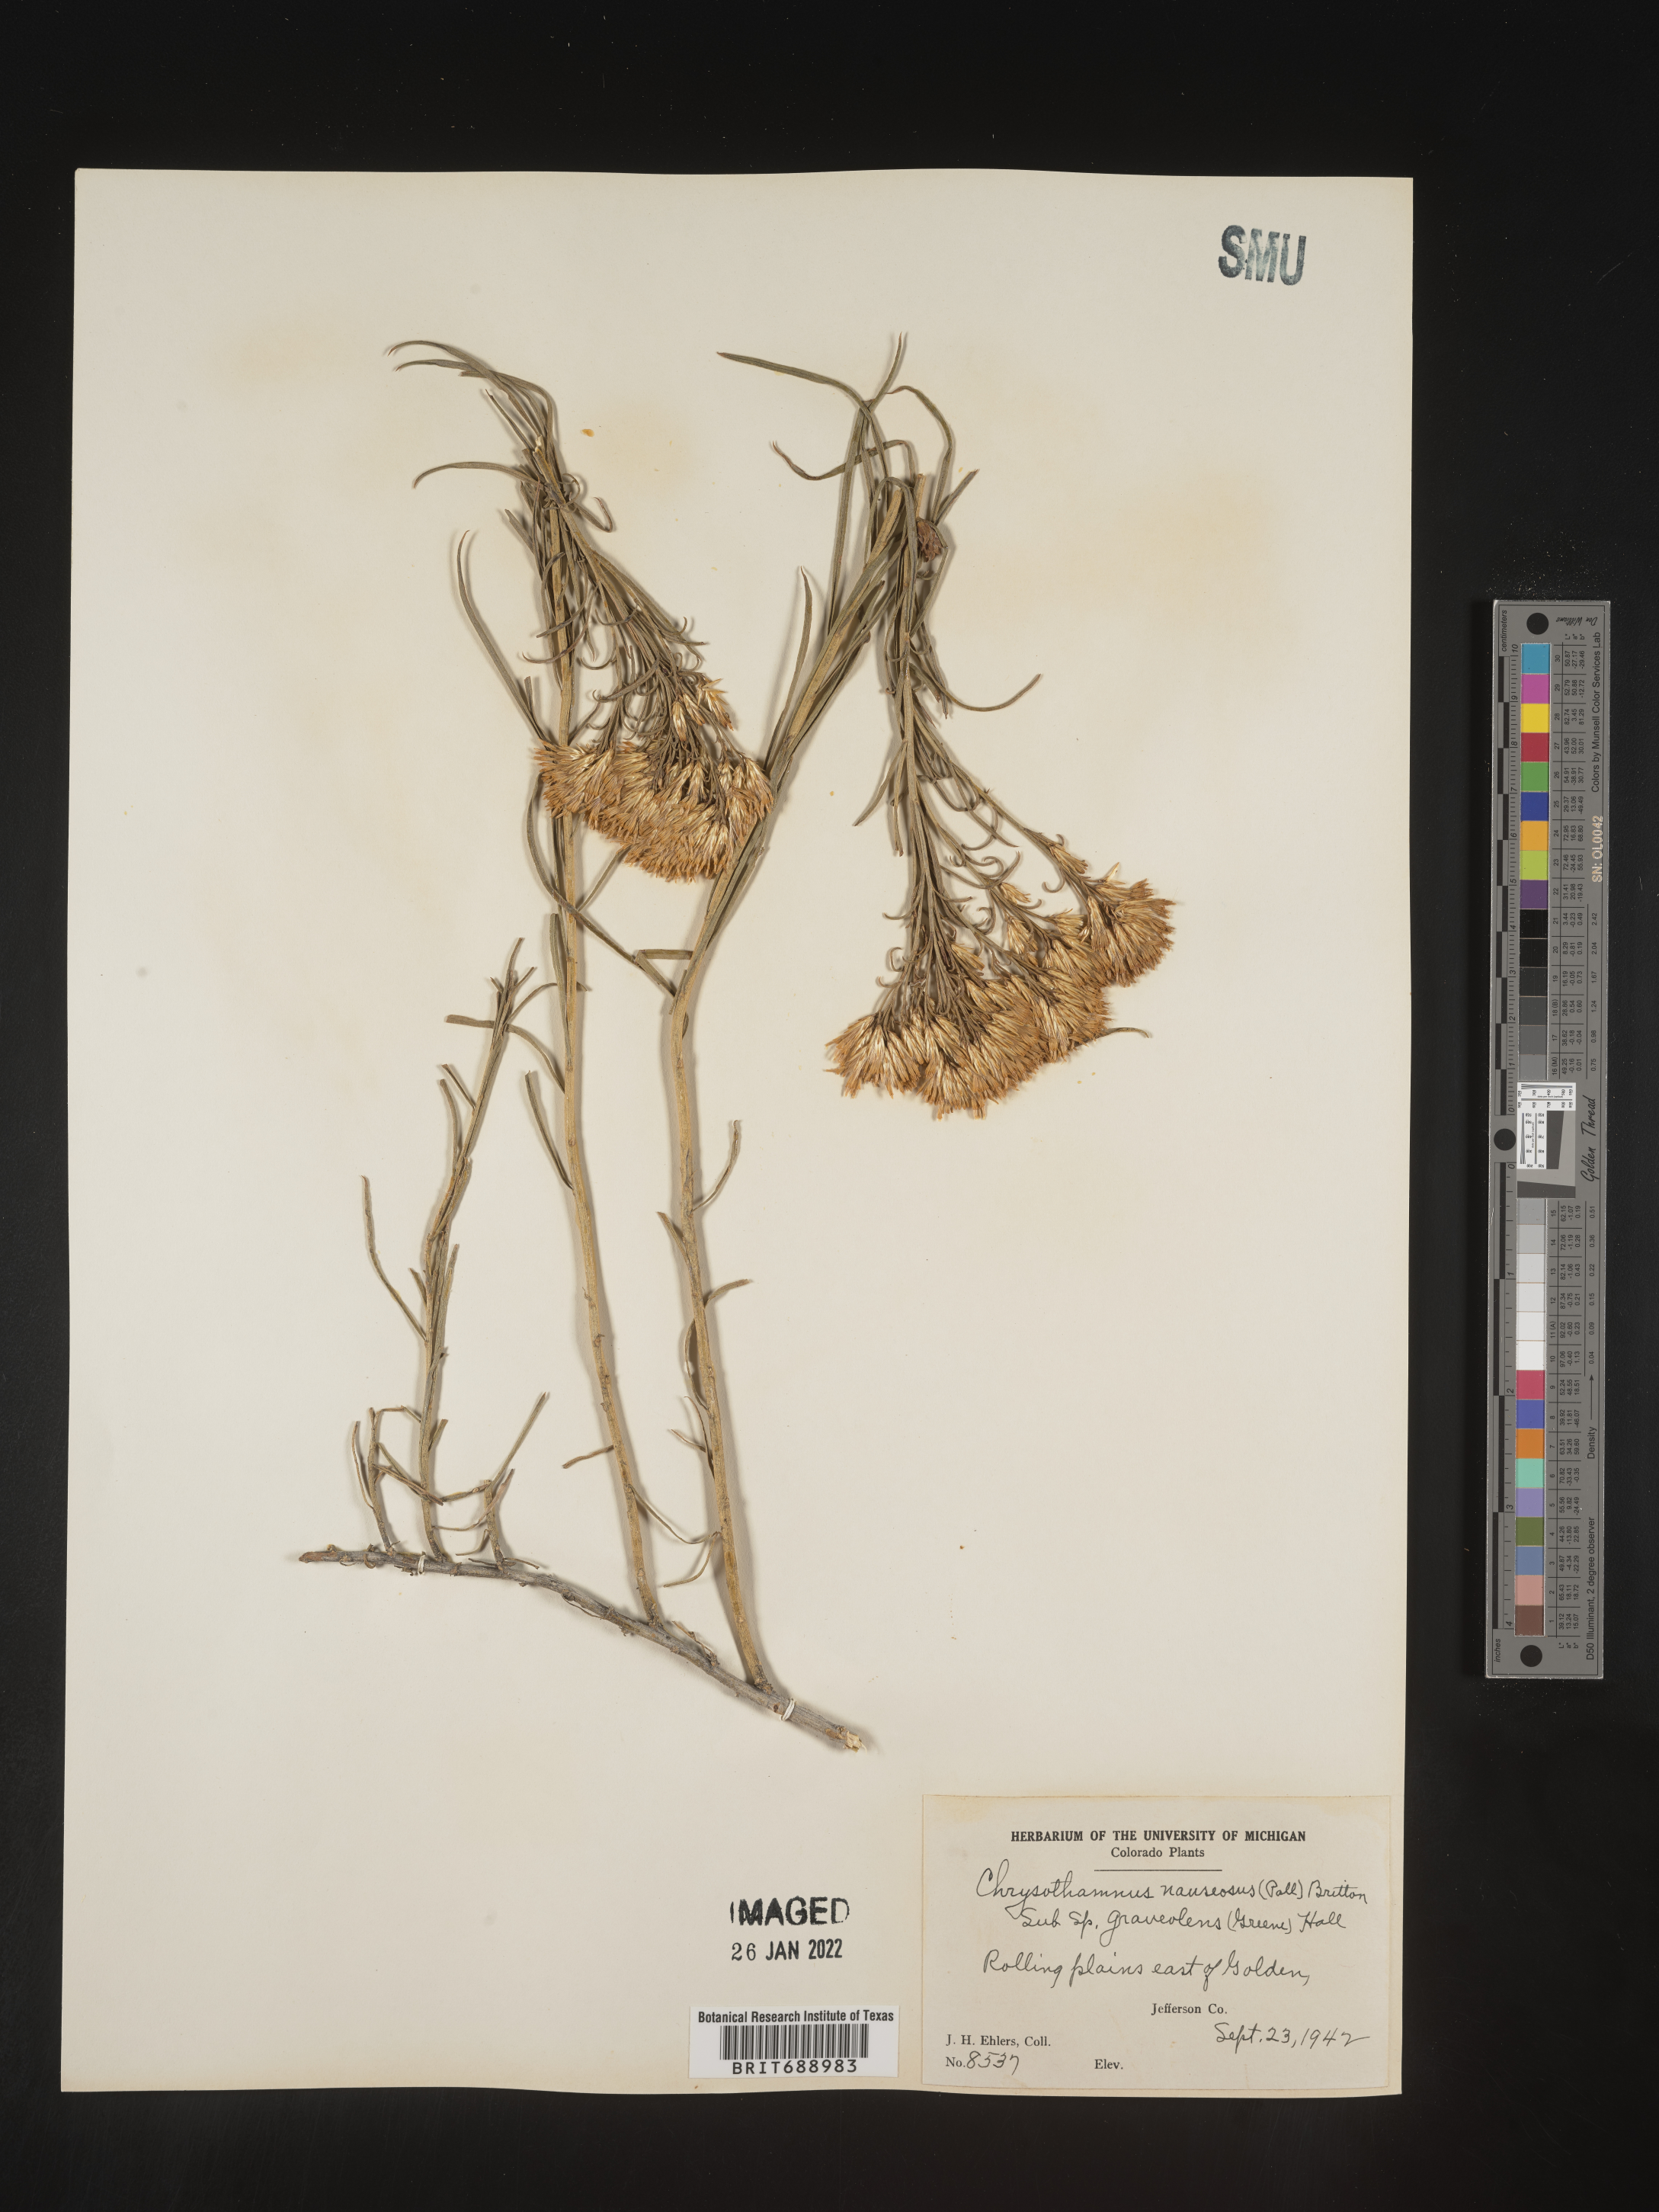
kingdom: Plantae
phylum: Tracheophyta
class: Magnoliopsida
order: Asterales
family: Asteraceae
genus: Ericameria
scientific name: Ericameria nauseosa
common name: Rubber rabbitbrush
